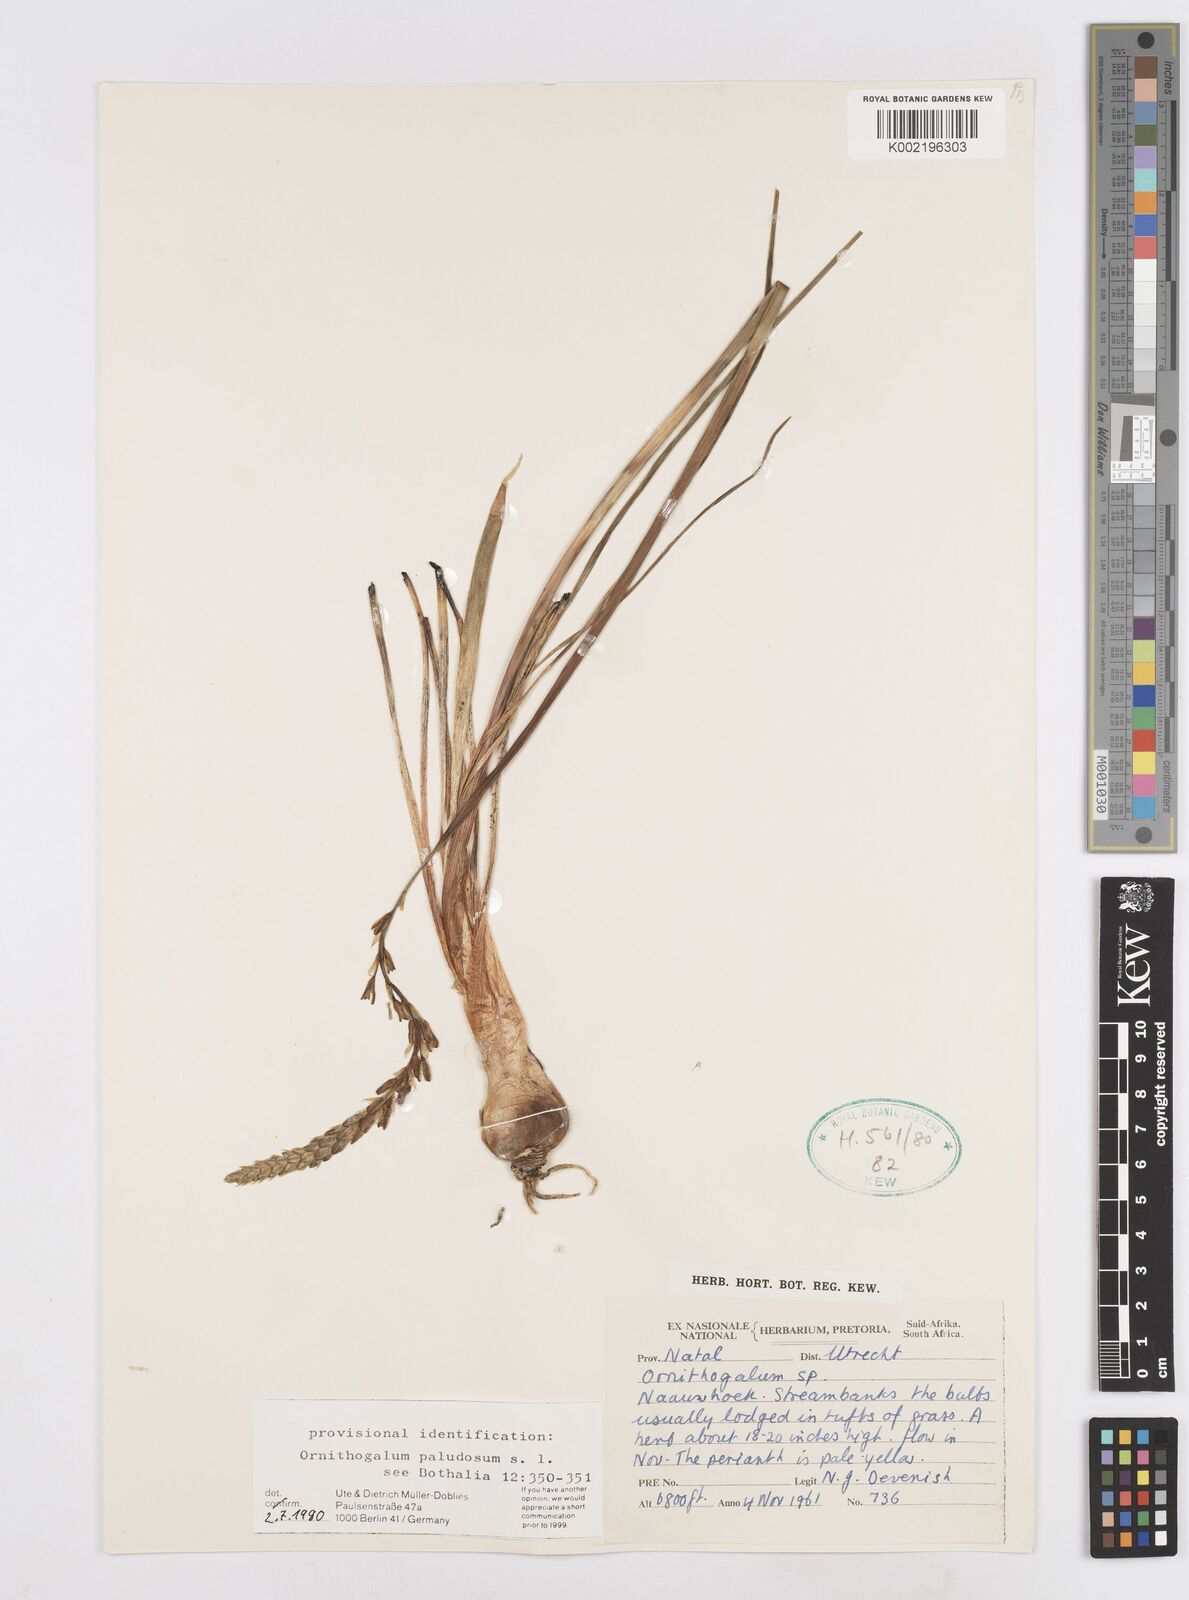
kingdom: Plantae
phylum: Tracheophyta
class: Liliopsida
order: Asparagales
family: Asparagaceae
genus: Ornithogalum
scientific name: Ornithogalum paludosum
